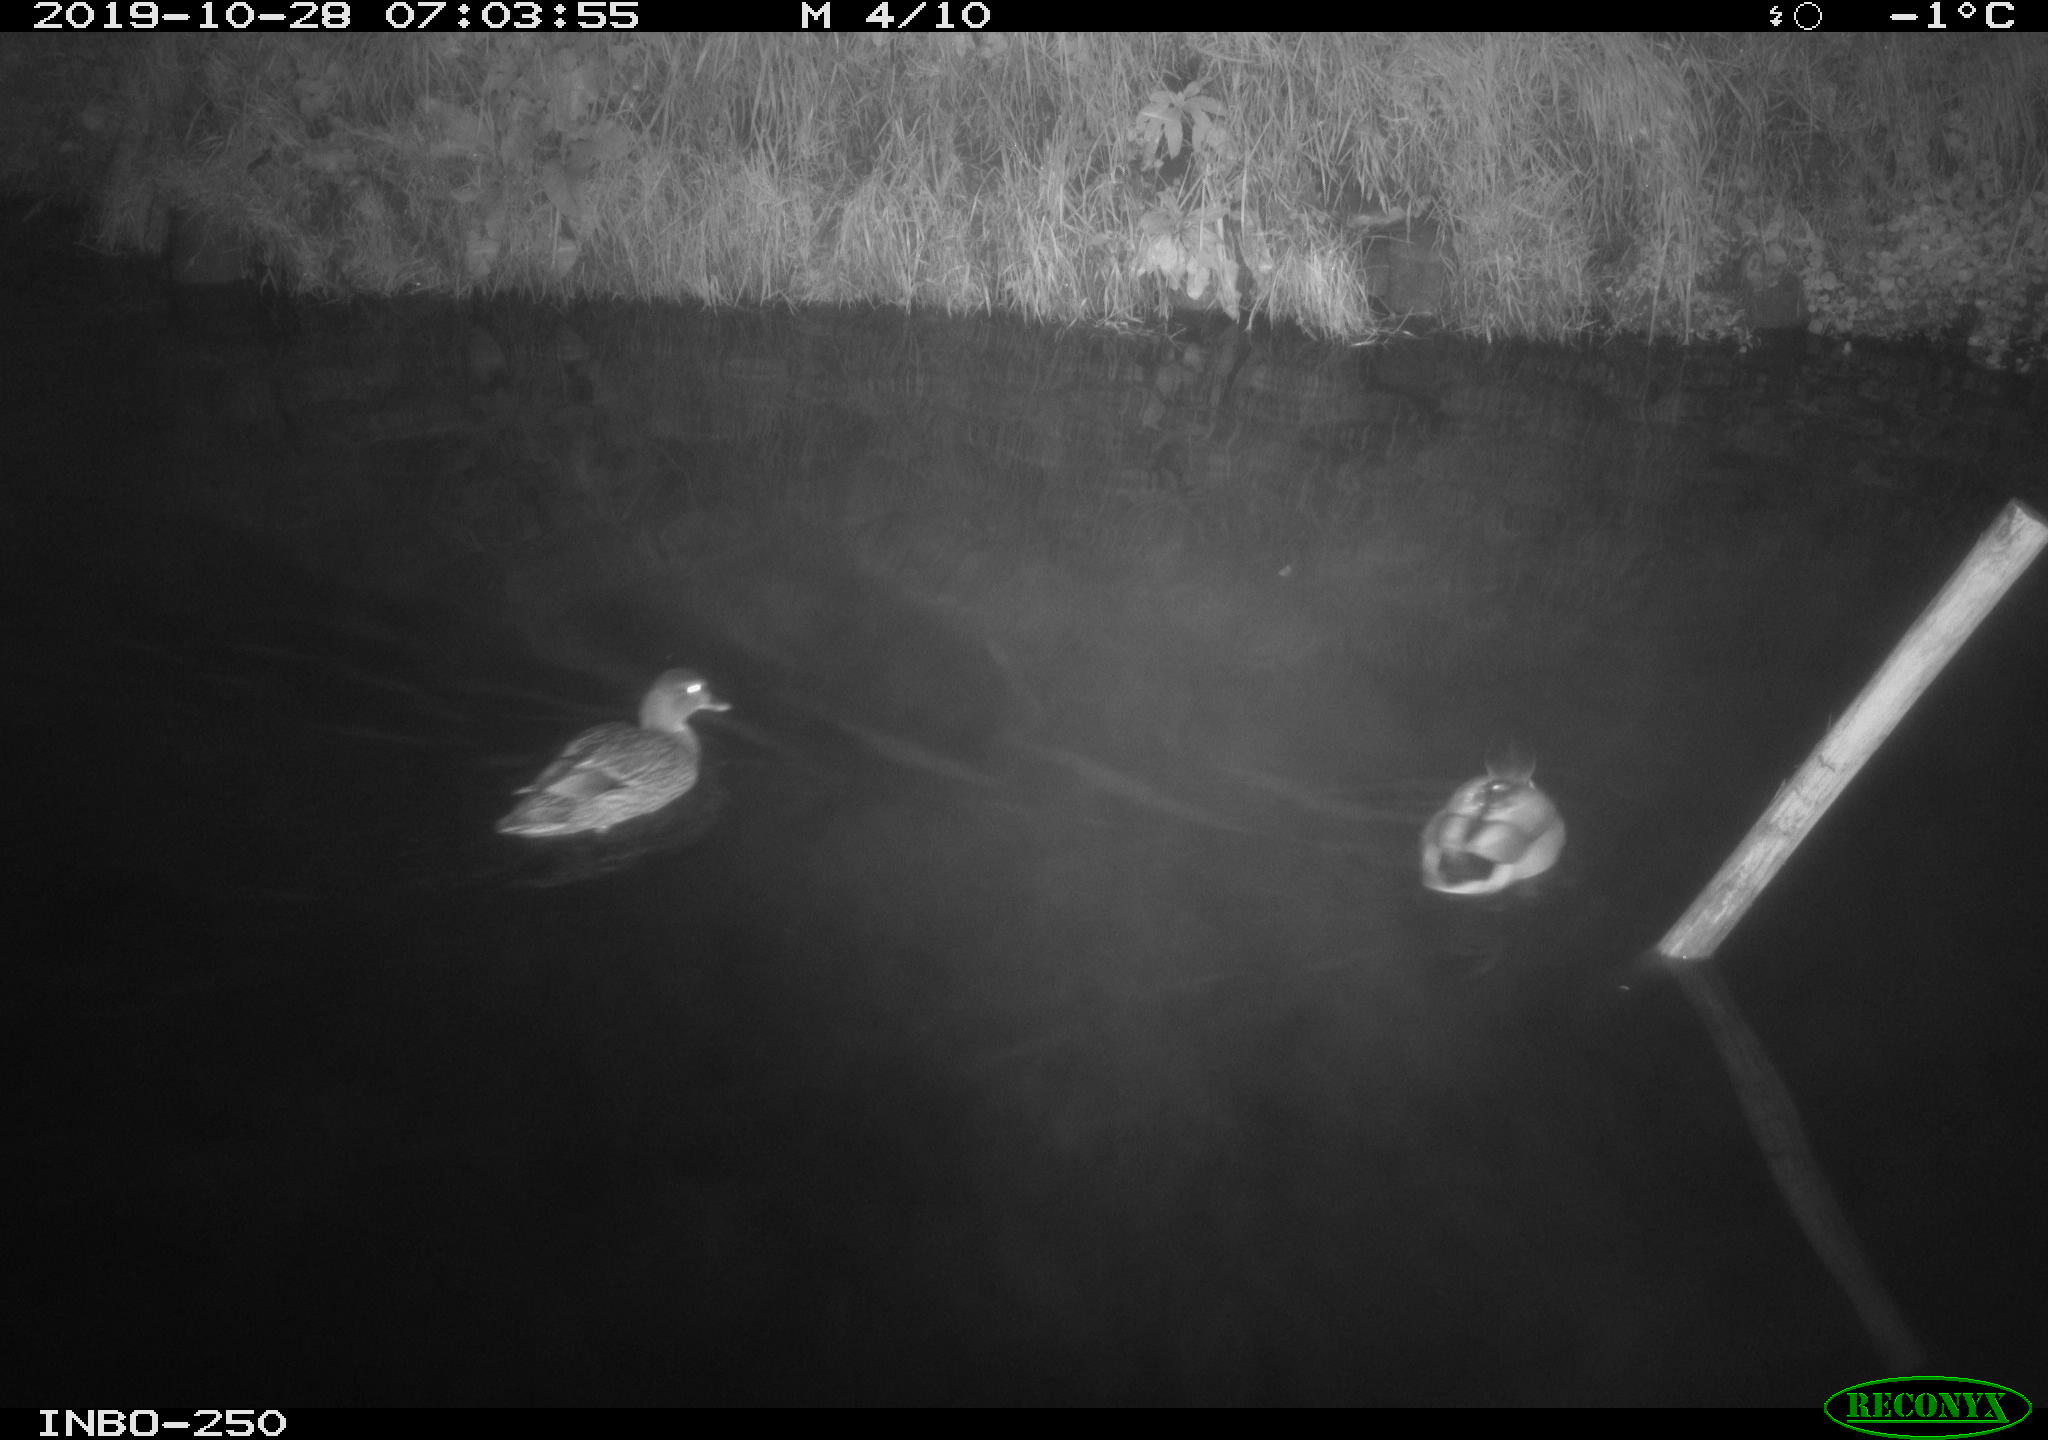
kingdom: Animalia
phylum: Chordata
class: Aves
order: Anseriformes
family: Anatidae
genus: Anas
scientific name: Anas platyrhynchos
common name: Mallard
